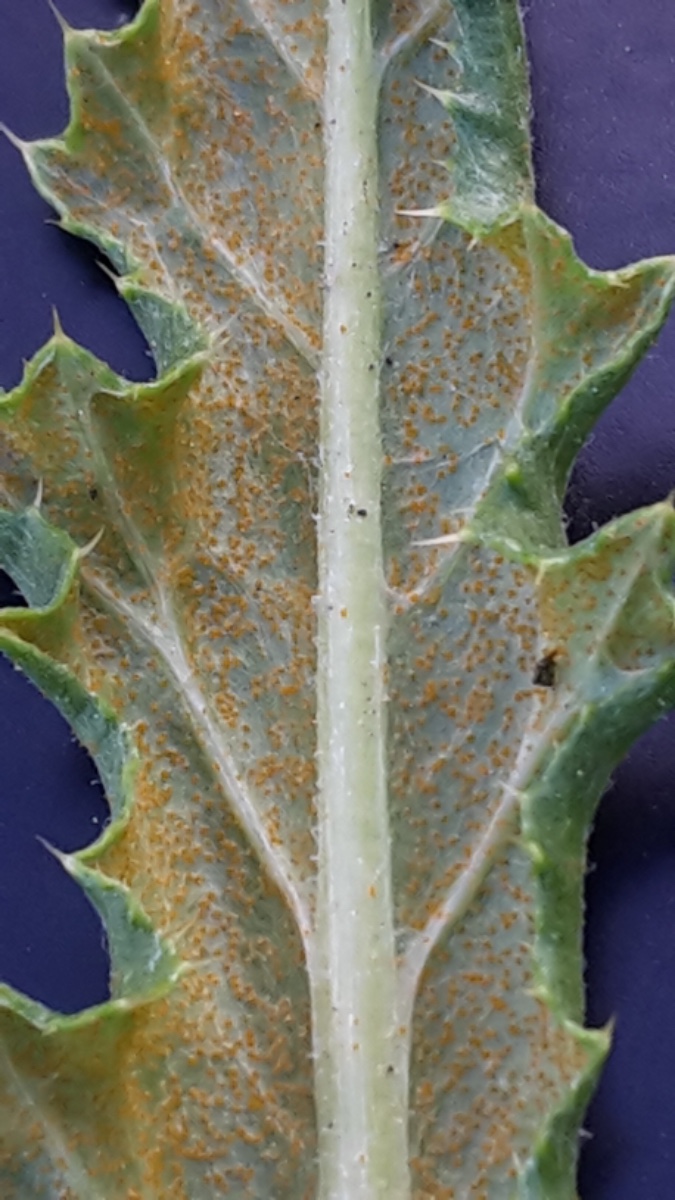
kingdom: Fungi
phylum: Basidiomycota
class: Pucciniomycetes
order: Pucciniales
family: Pucciniaceae
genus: Puccinia
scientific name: Puccinia suaveolens
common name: tidsel-tvecellerust
